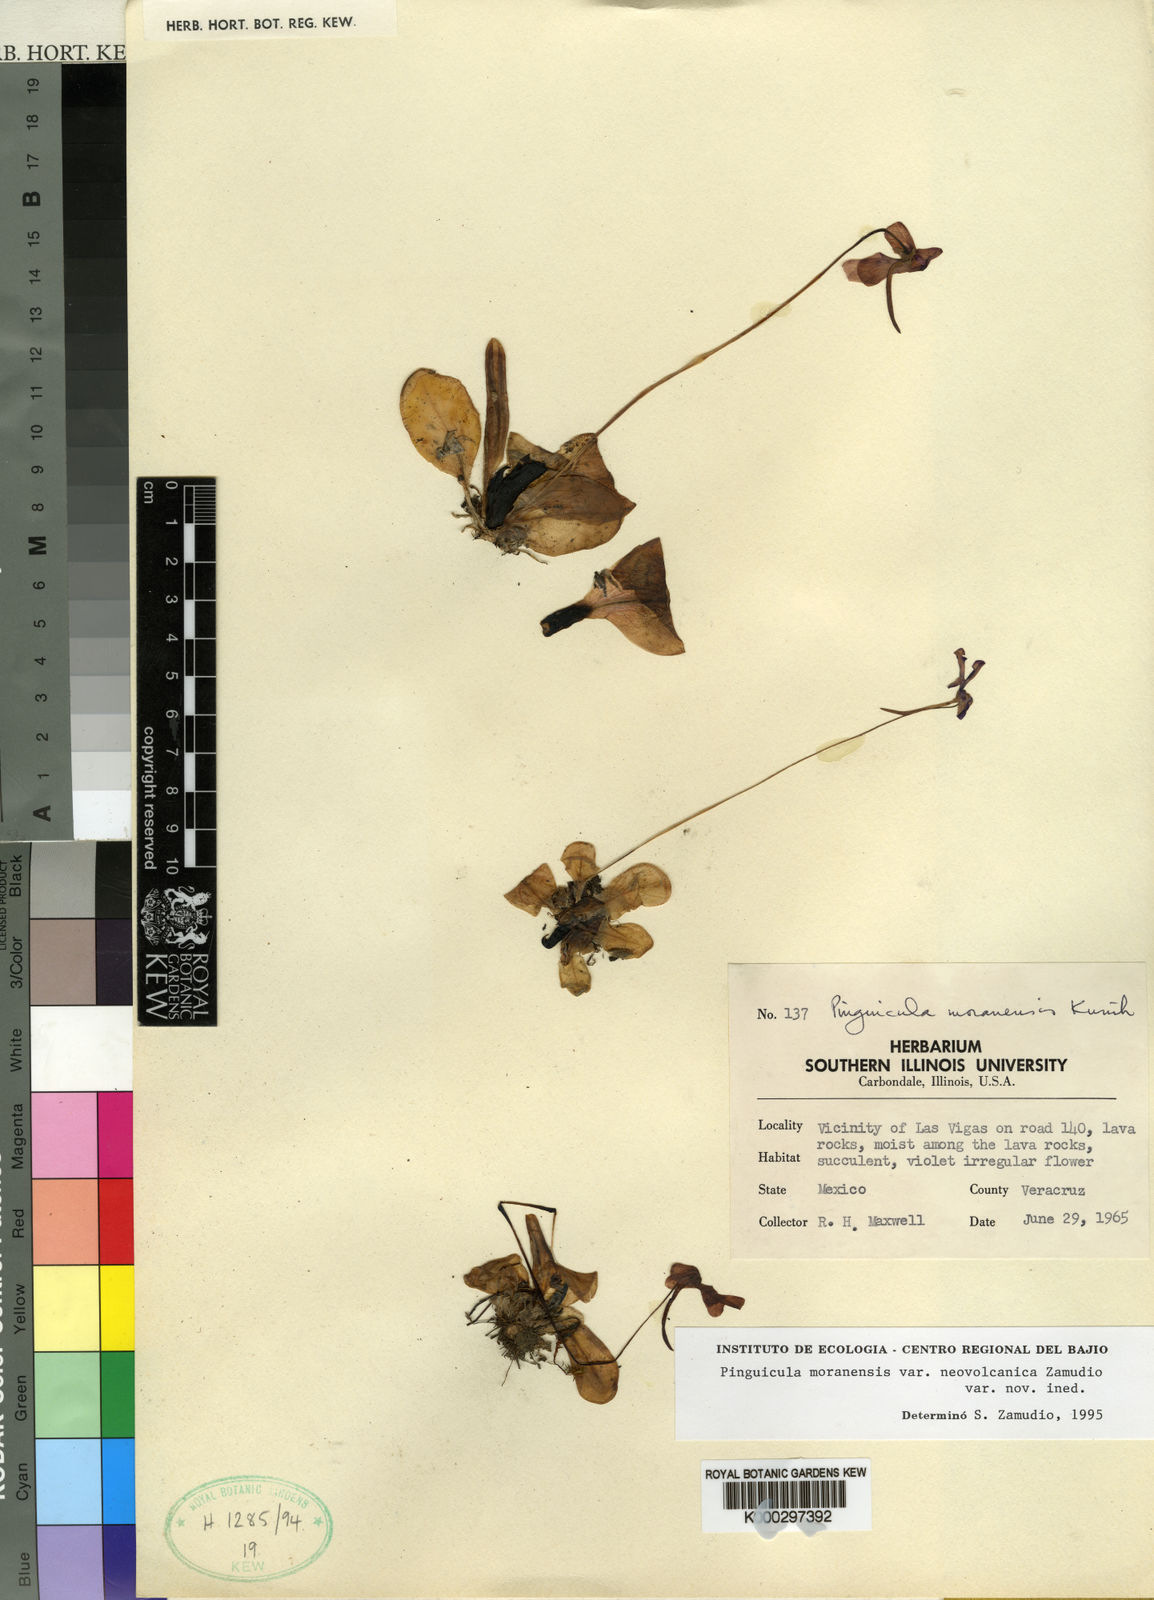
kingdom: Plantae
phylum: Tracheophyta
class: Magnoliopsida
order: Lamiales
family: Lentibulariaceae
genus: Pinguicula
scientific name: Pinguicula moranensis
